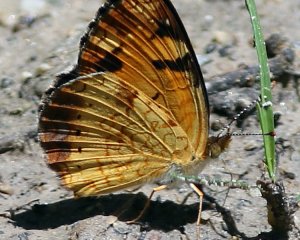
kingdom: Animalia
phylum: Arthropoda
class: Insecta
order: Lepidoptera
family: Nymphalidae
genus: Phyciodes
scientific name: Phyciodes tharos
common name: Northern Crescent
